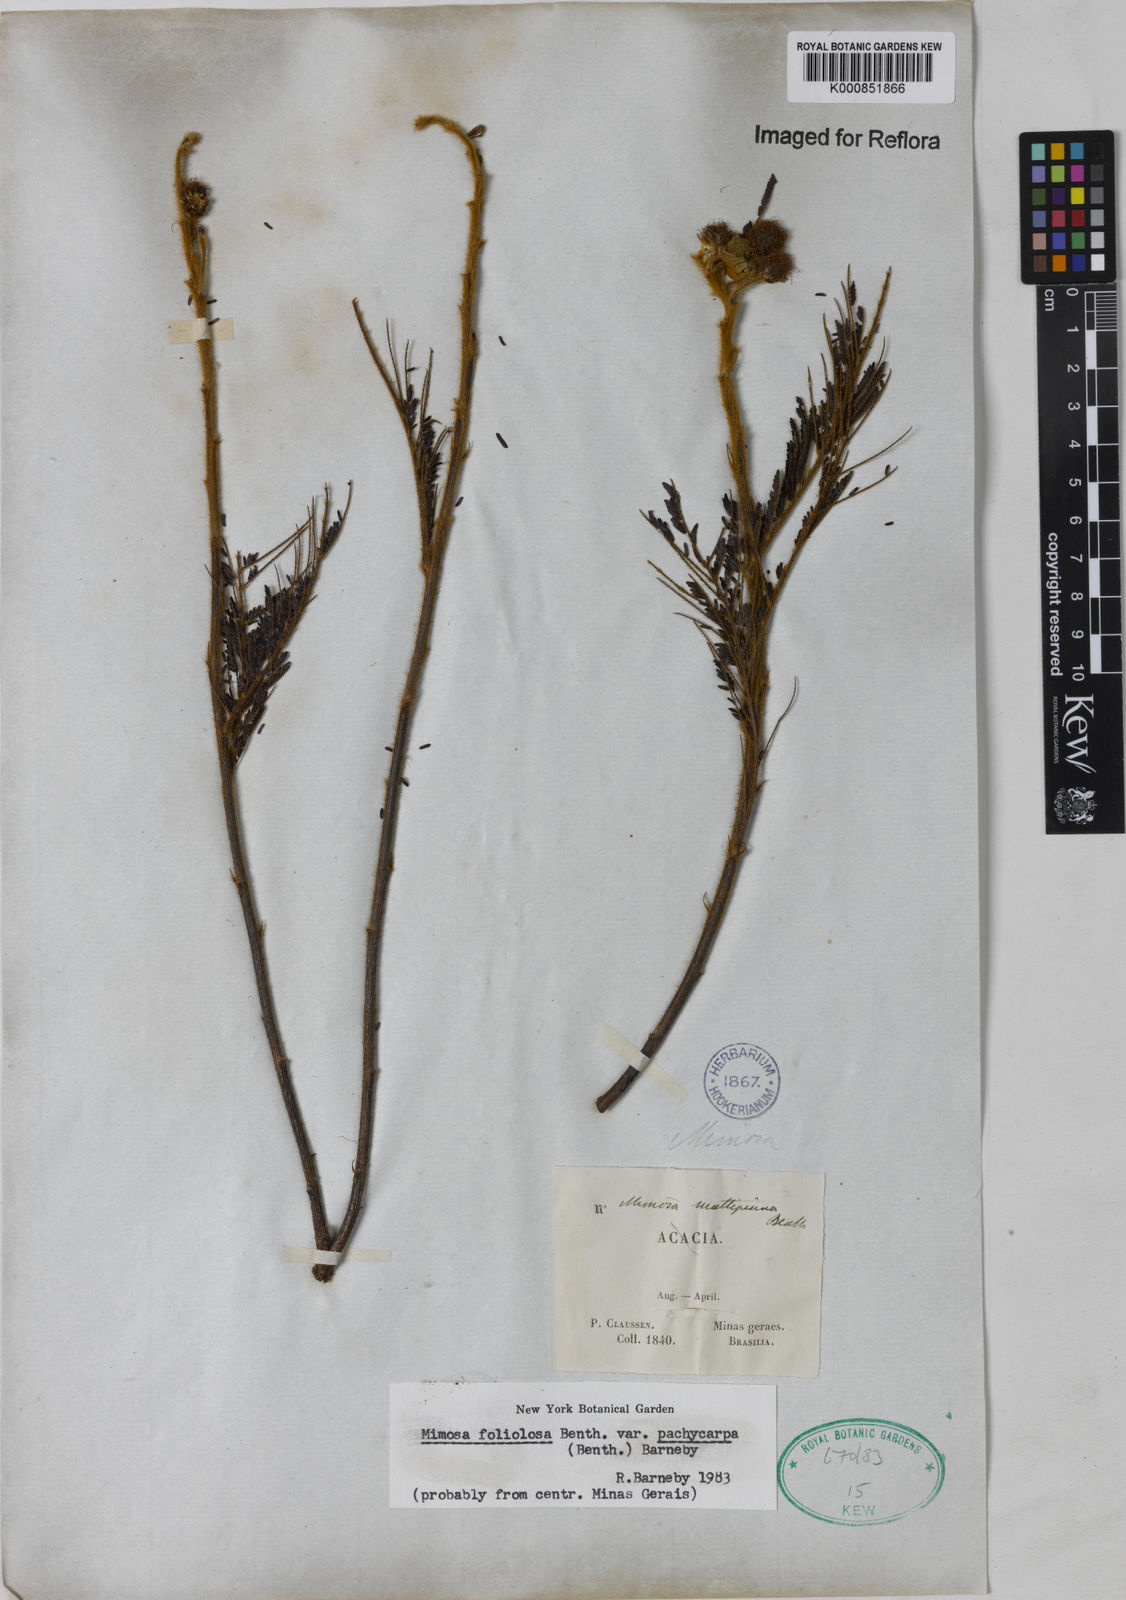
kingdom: Plantae
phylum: Tracheophyta
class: Magnoliopsida
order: Fabales
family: Fabaceae
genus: Mimosa
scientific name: Mimosa foliolosa
